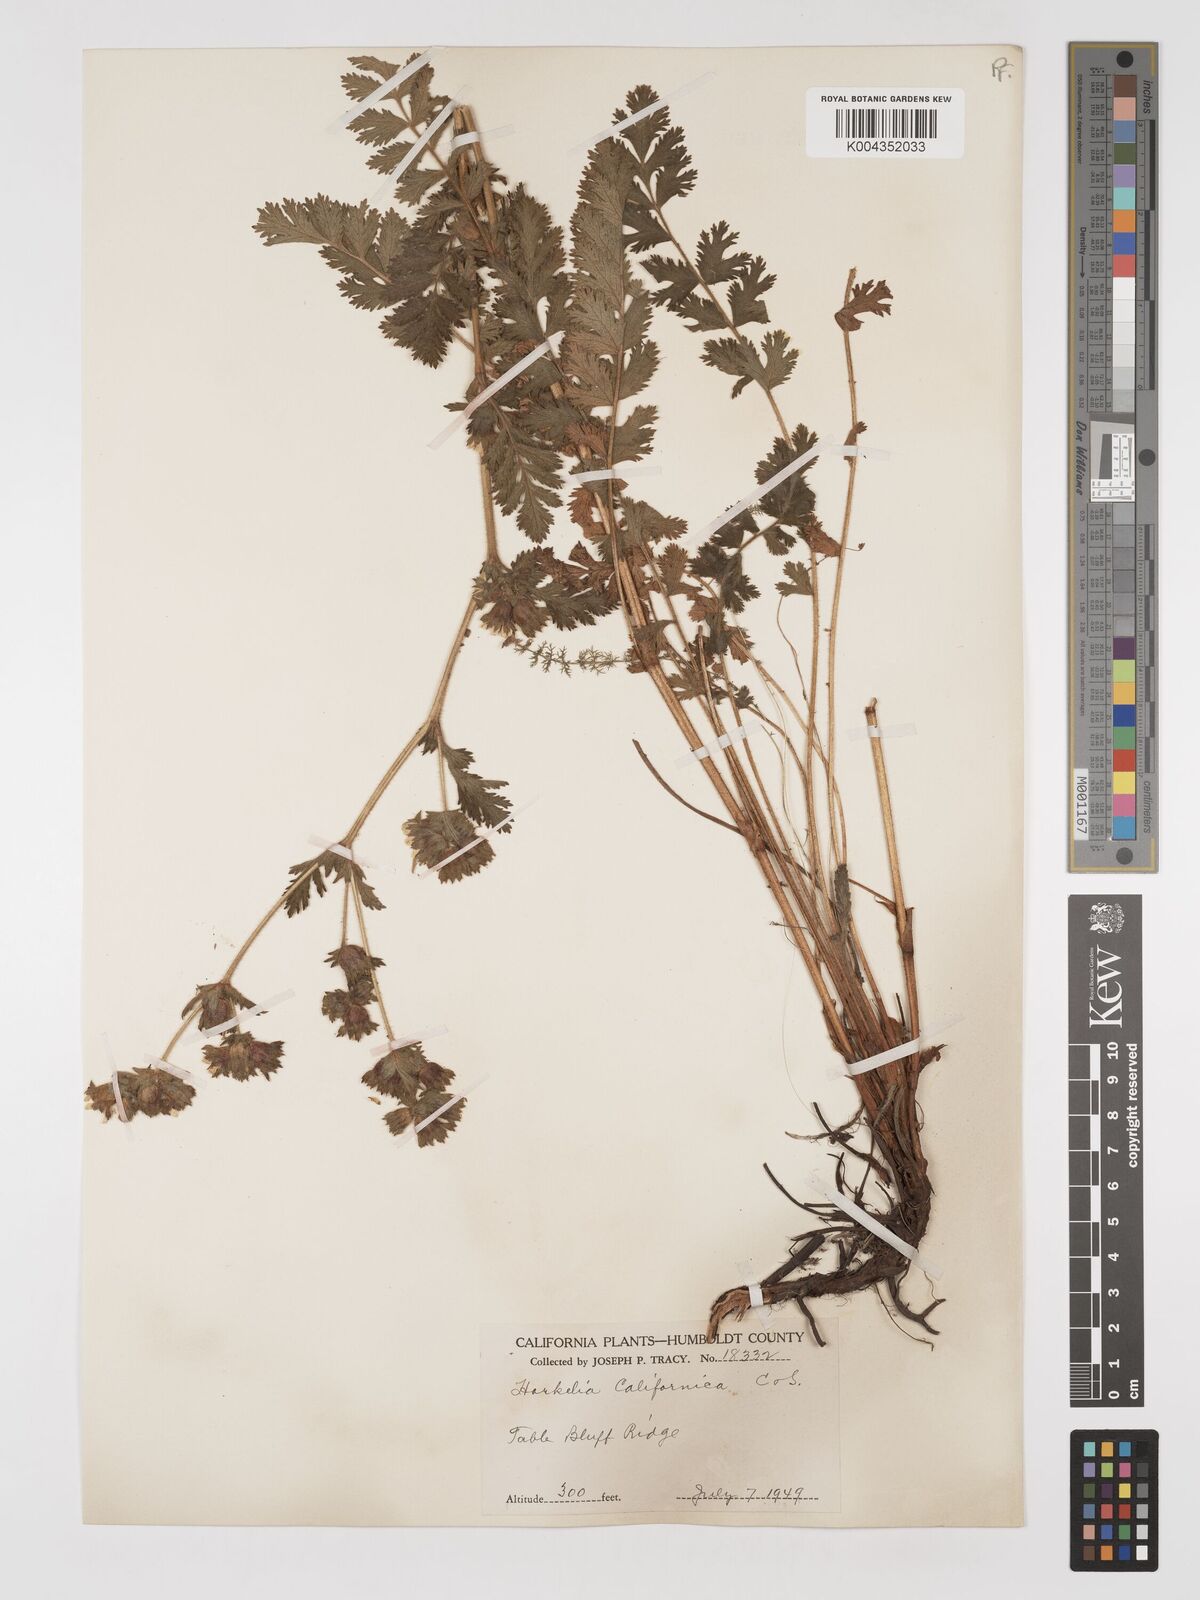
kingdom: Plantae
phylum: Tracheophyta
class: Magnoliopsida
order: Rosales
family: Rosaceae
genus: Potentilla
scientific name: Potentilla californica
